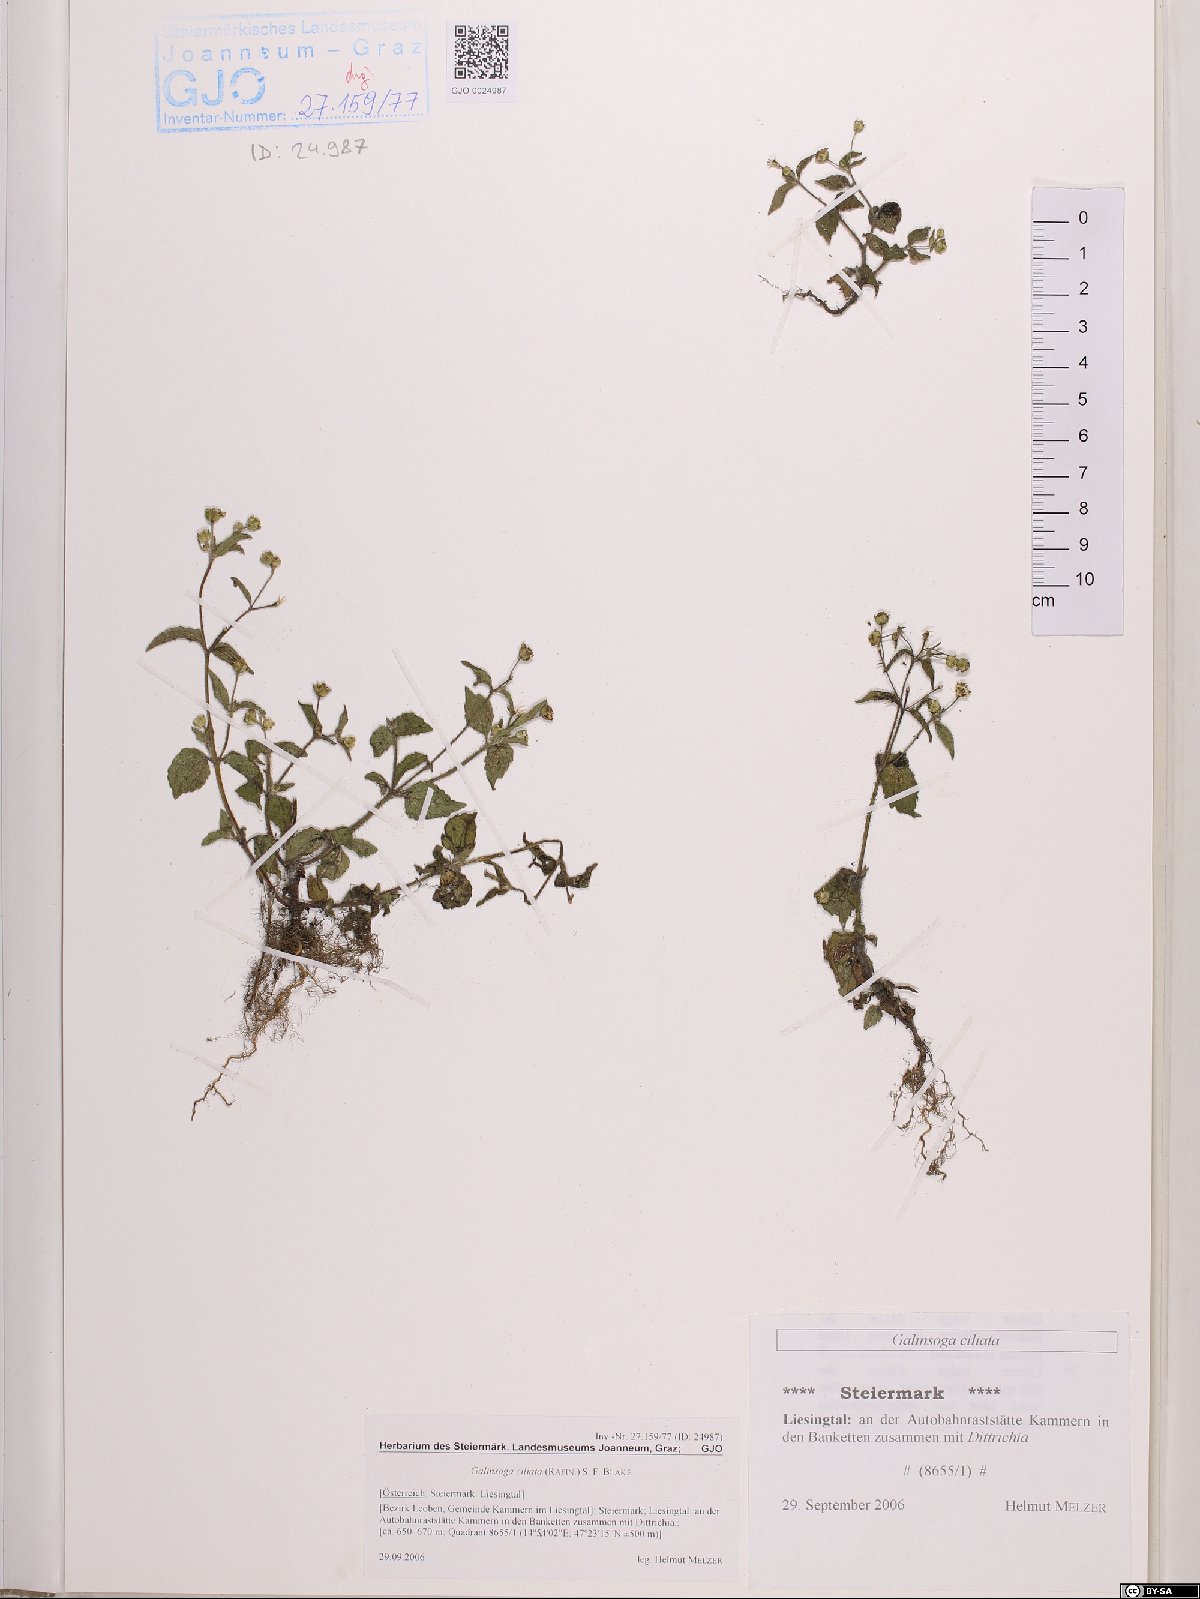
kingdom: Plantae
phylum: Tracheophyta
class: Magnoliopsida
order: Asterales
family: Asteraceae
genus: Galinsoga
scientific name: Galinsoga quadriradiata
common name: Shaggy soldier
